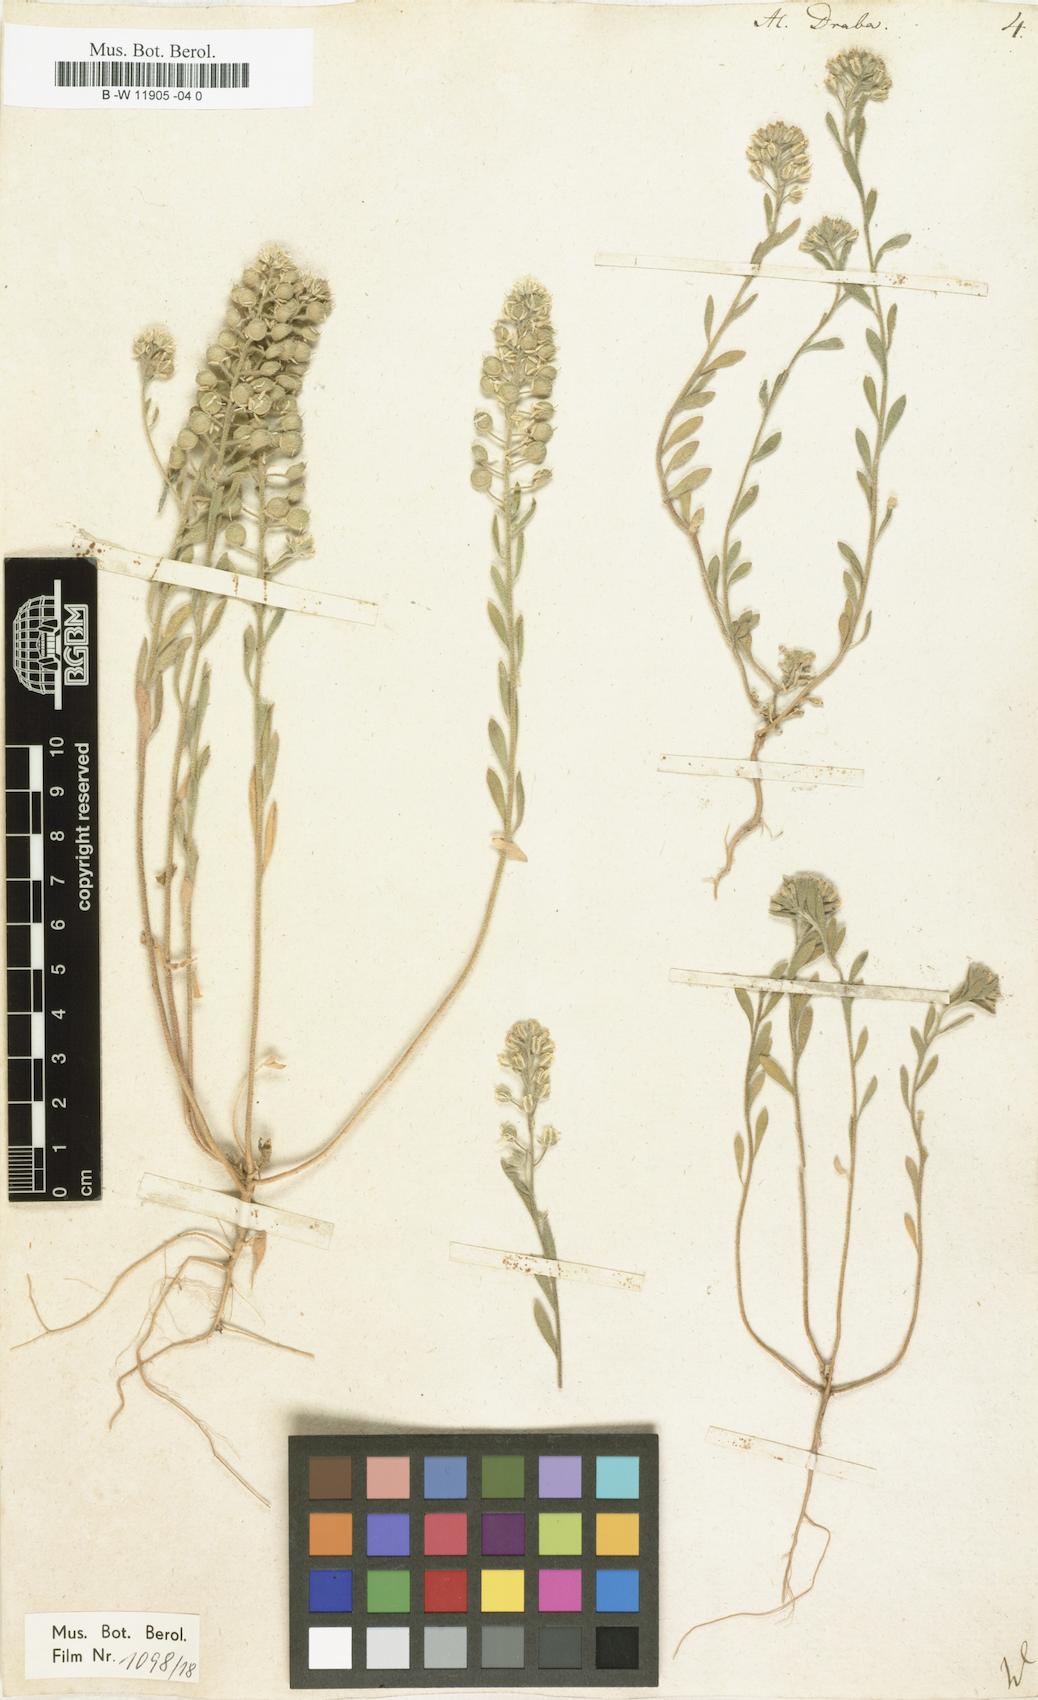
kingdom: Plantae
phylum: Tracheophyta
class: Magnoliopsida
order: Brassicales
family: Brassicaceae
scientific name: Brassicaceae
